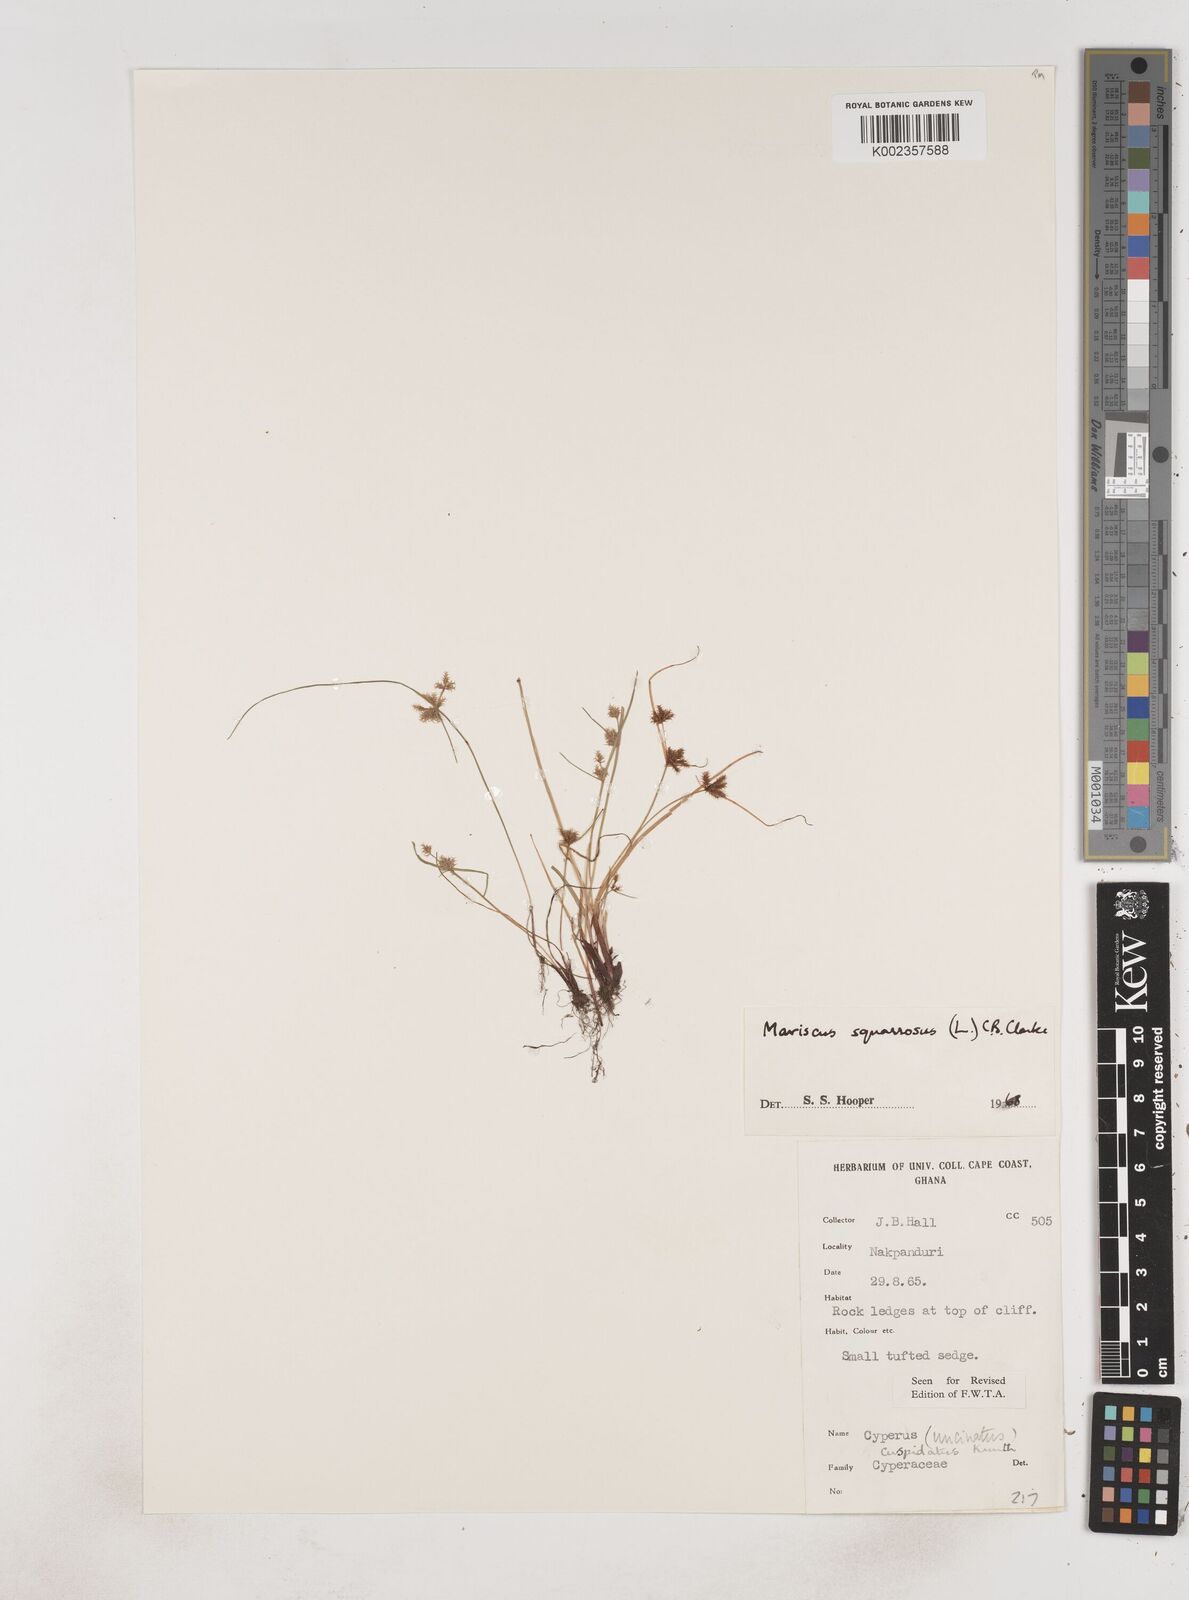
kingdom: Plantae
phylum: Tracheophyta
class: Liliopsida
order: Poales
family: Cyperaceae
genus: Cyperus
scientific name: Cyperus squarrosus
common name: Awned cyperus
